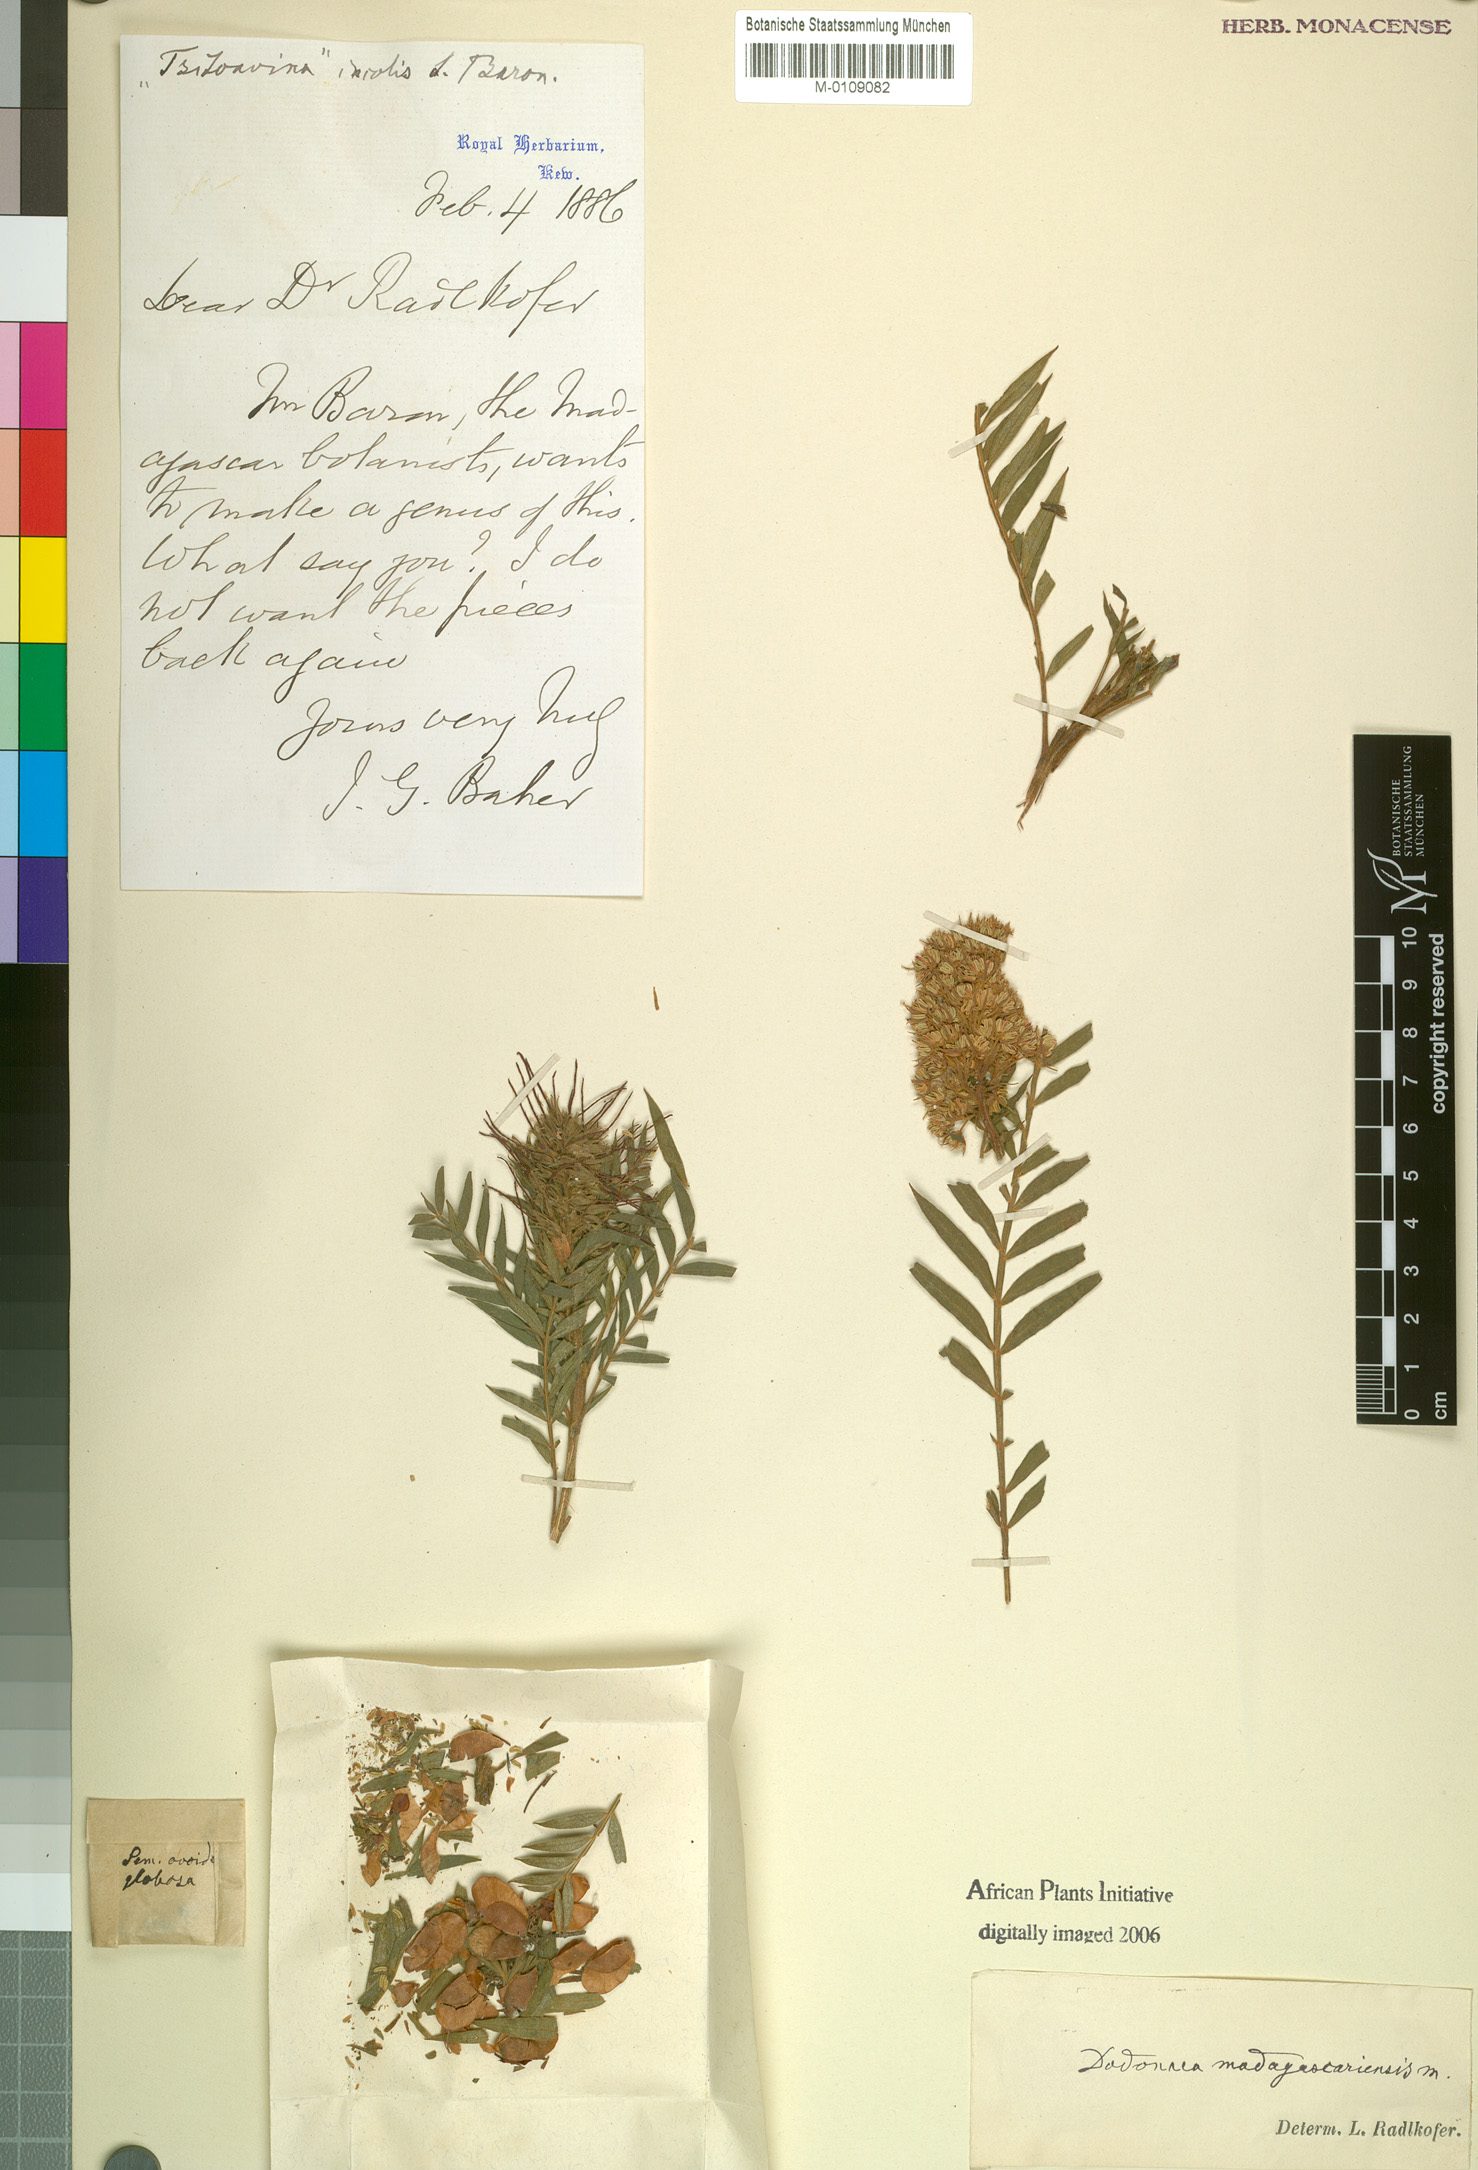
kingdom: Plantae
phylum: Tracheophyta
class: Magnoliopsida
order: Sapindales
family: Sapindaceae
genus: Dodonaea
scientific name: Dodonaea madagascariensis
